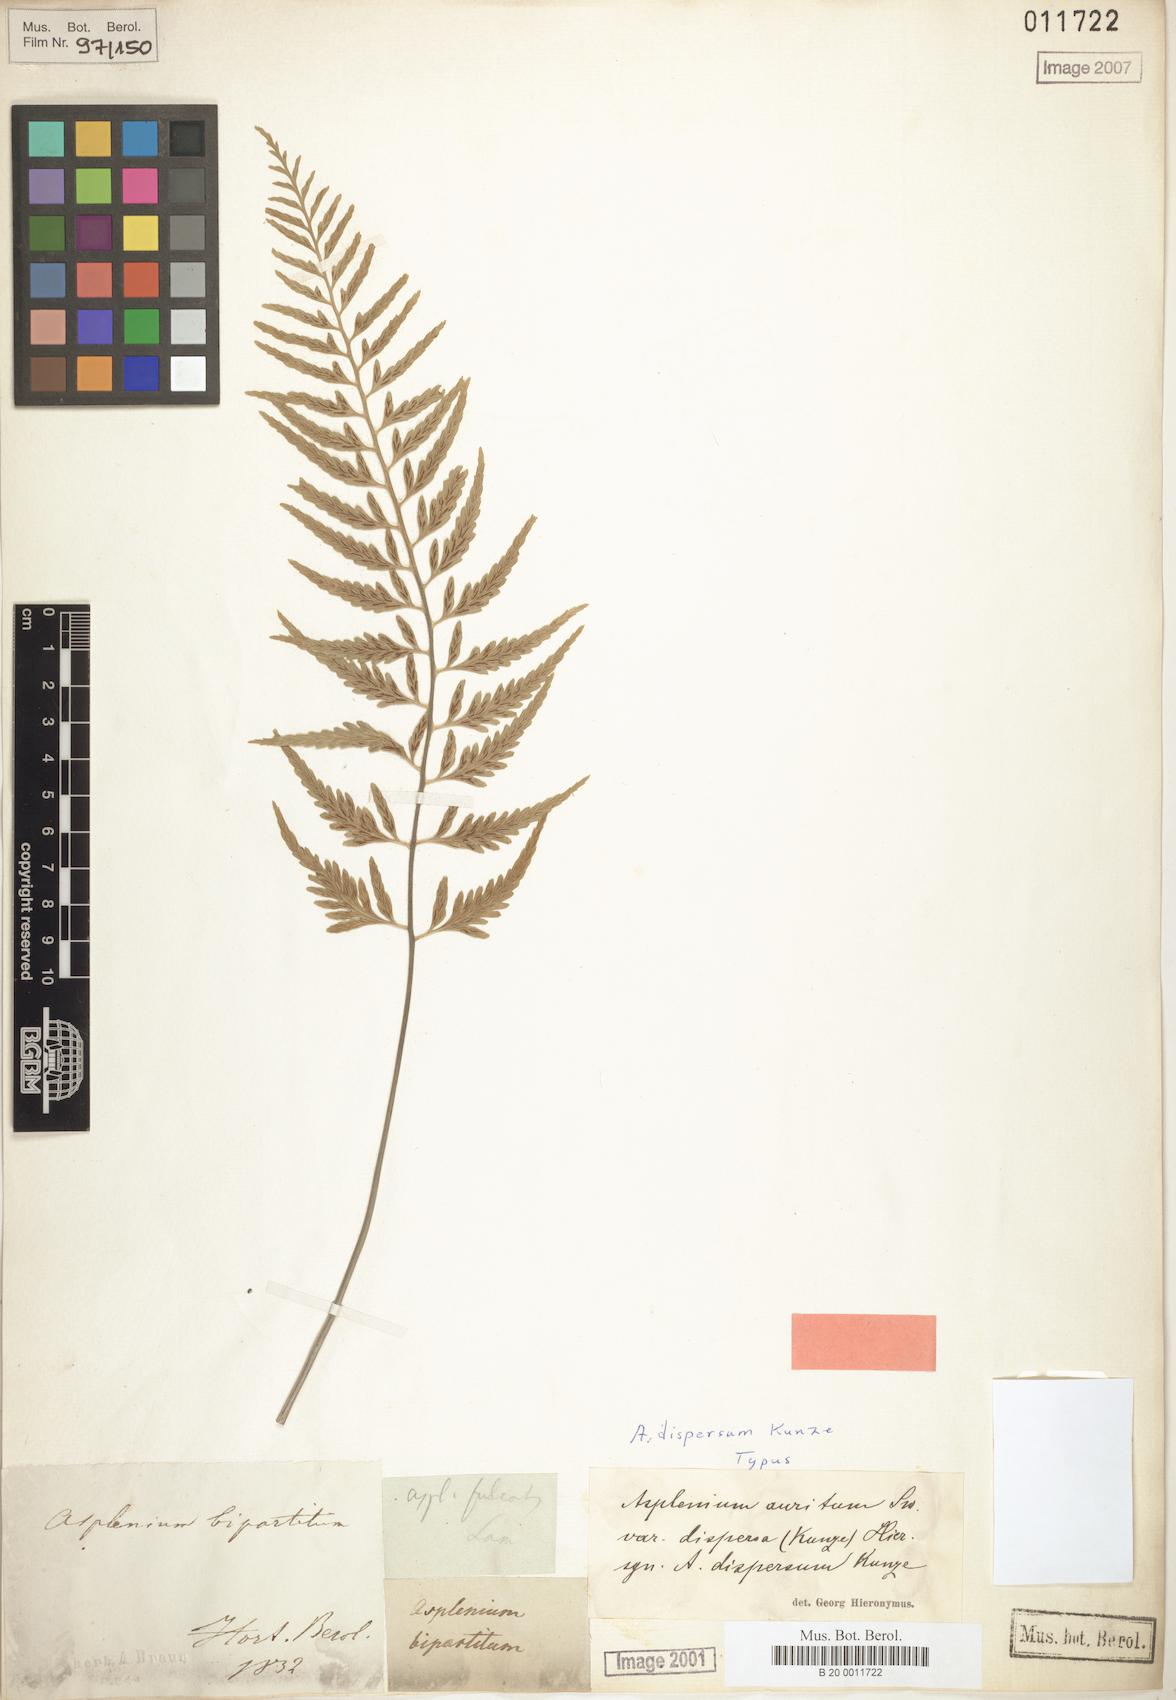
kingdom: Plantae
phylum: Tracheophyta
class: Polypodiopsida
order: Polypodiales
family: Aspleniaceae
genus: Asplenium
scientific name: Asplenium auritum
